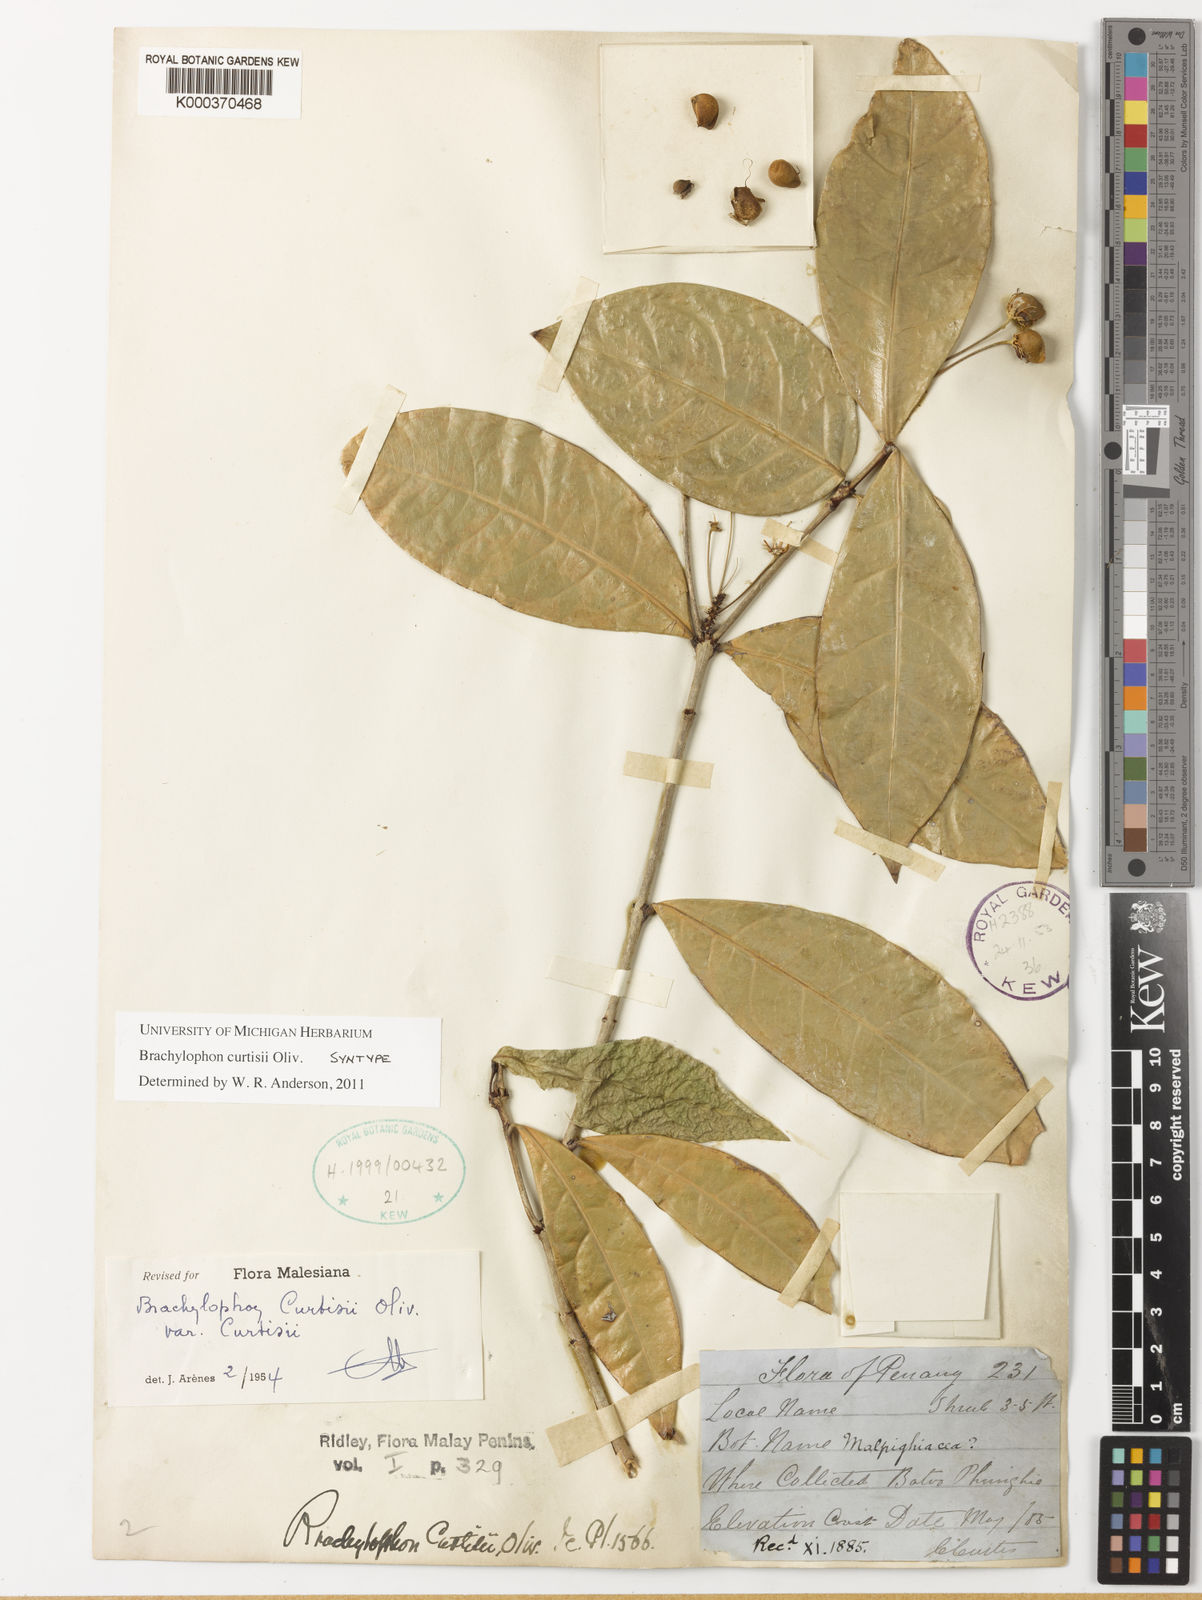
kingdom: Plantae
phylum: Tracheophyta
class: Magnoliopsida
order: Malpighiales
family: Malpighiaceae
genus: Brachylophon
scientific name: Brachylophon curtisii
